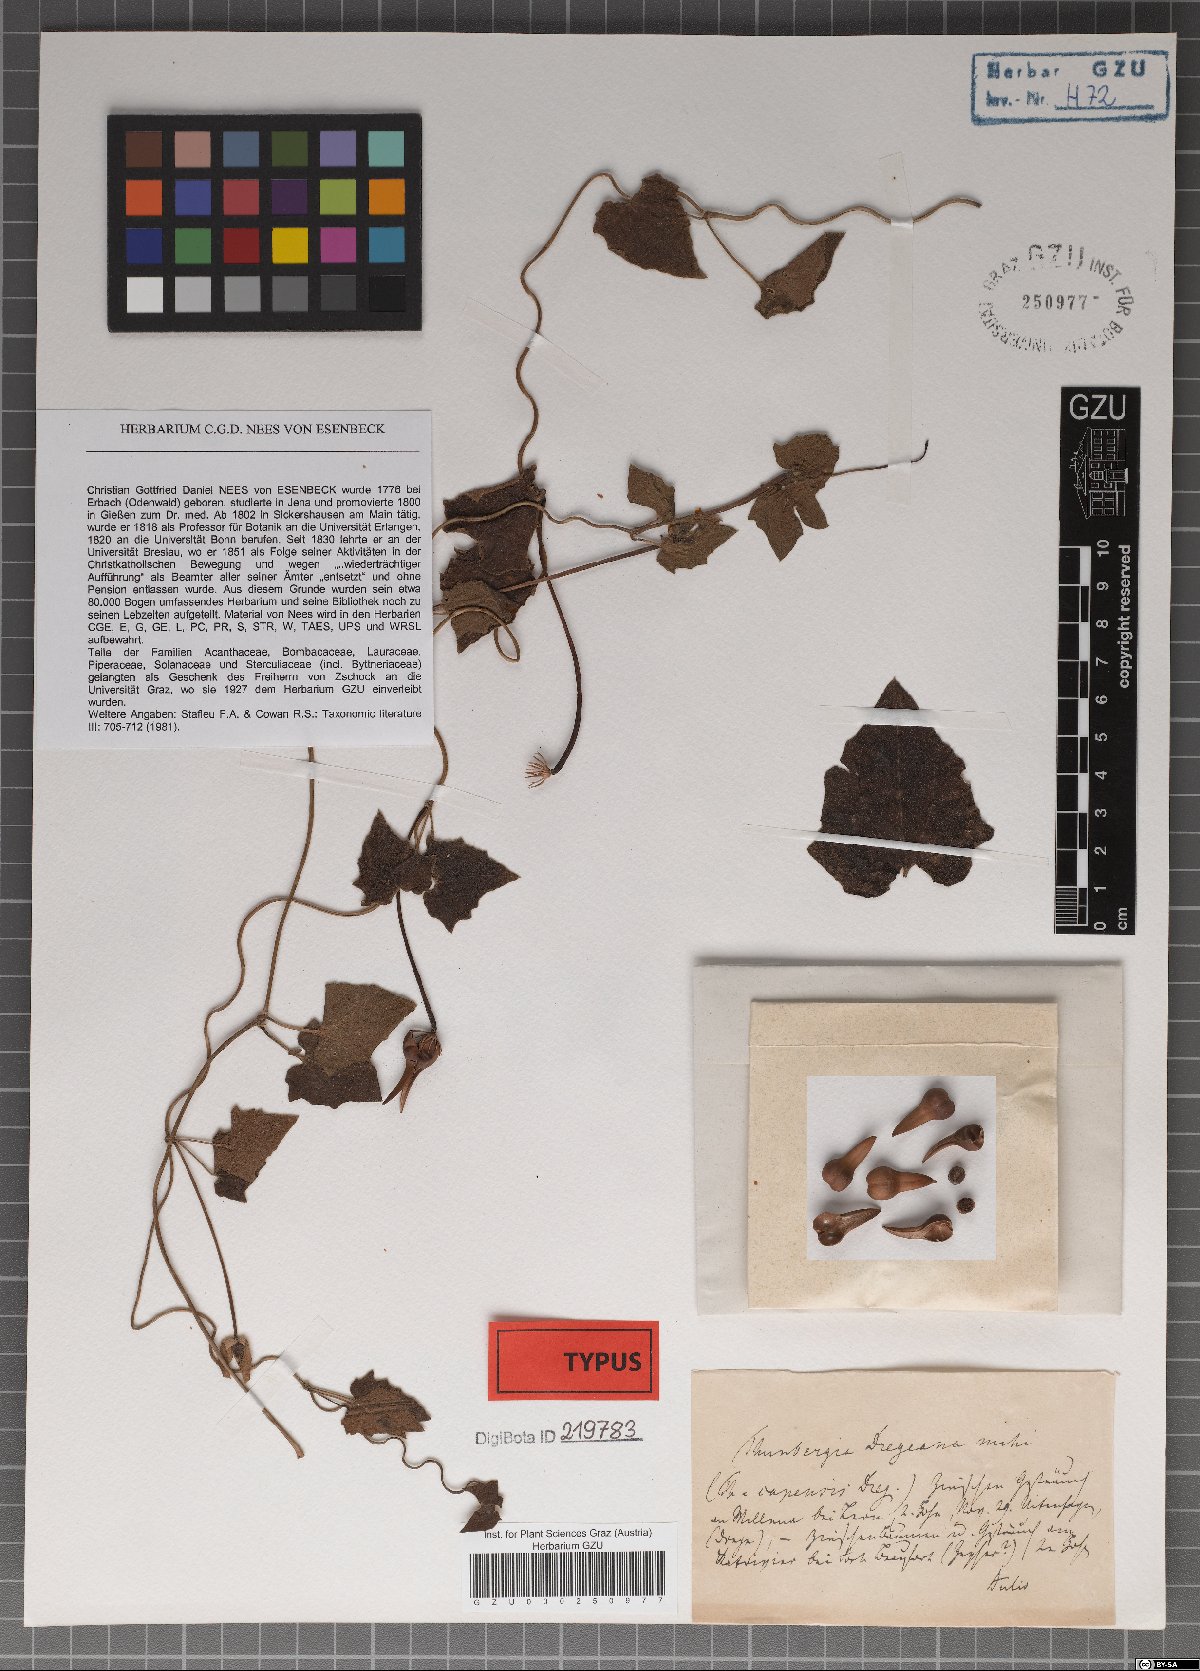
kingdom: Plantae
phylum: Tracheophyta
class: Magnoliopsida
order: Lamiales
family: Acanthaceae
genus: Thunbergia
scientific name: Thunbergia dregeana
